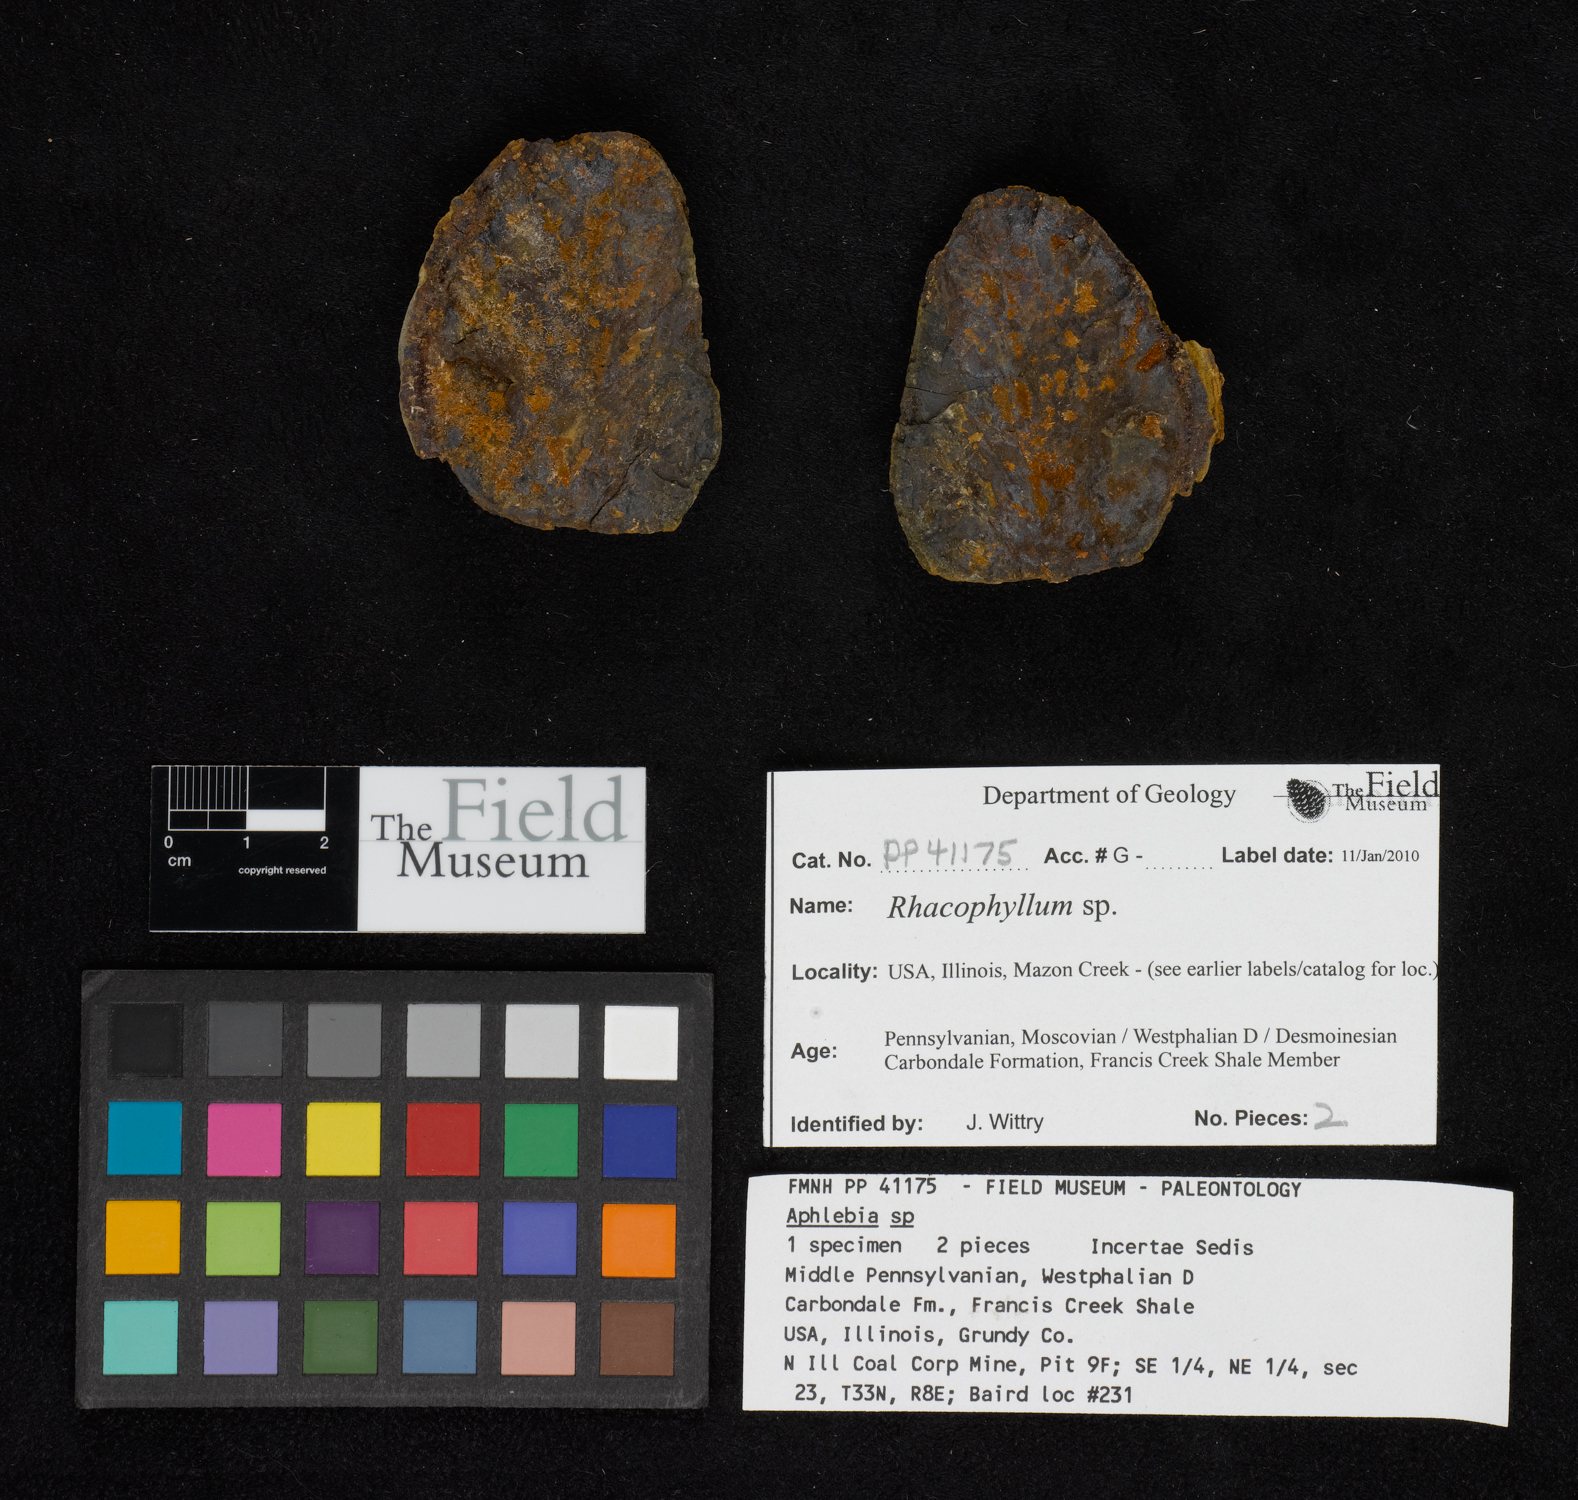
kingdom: Plantae
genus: Rhacophyllum
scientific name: Rhacophyllum
